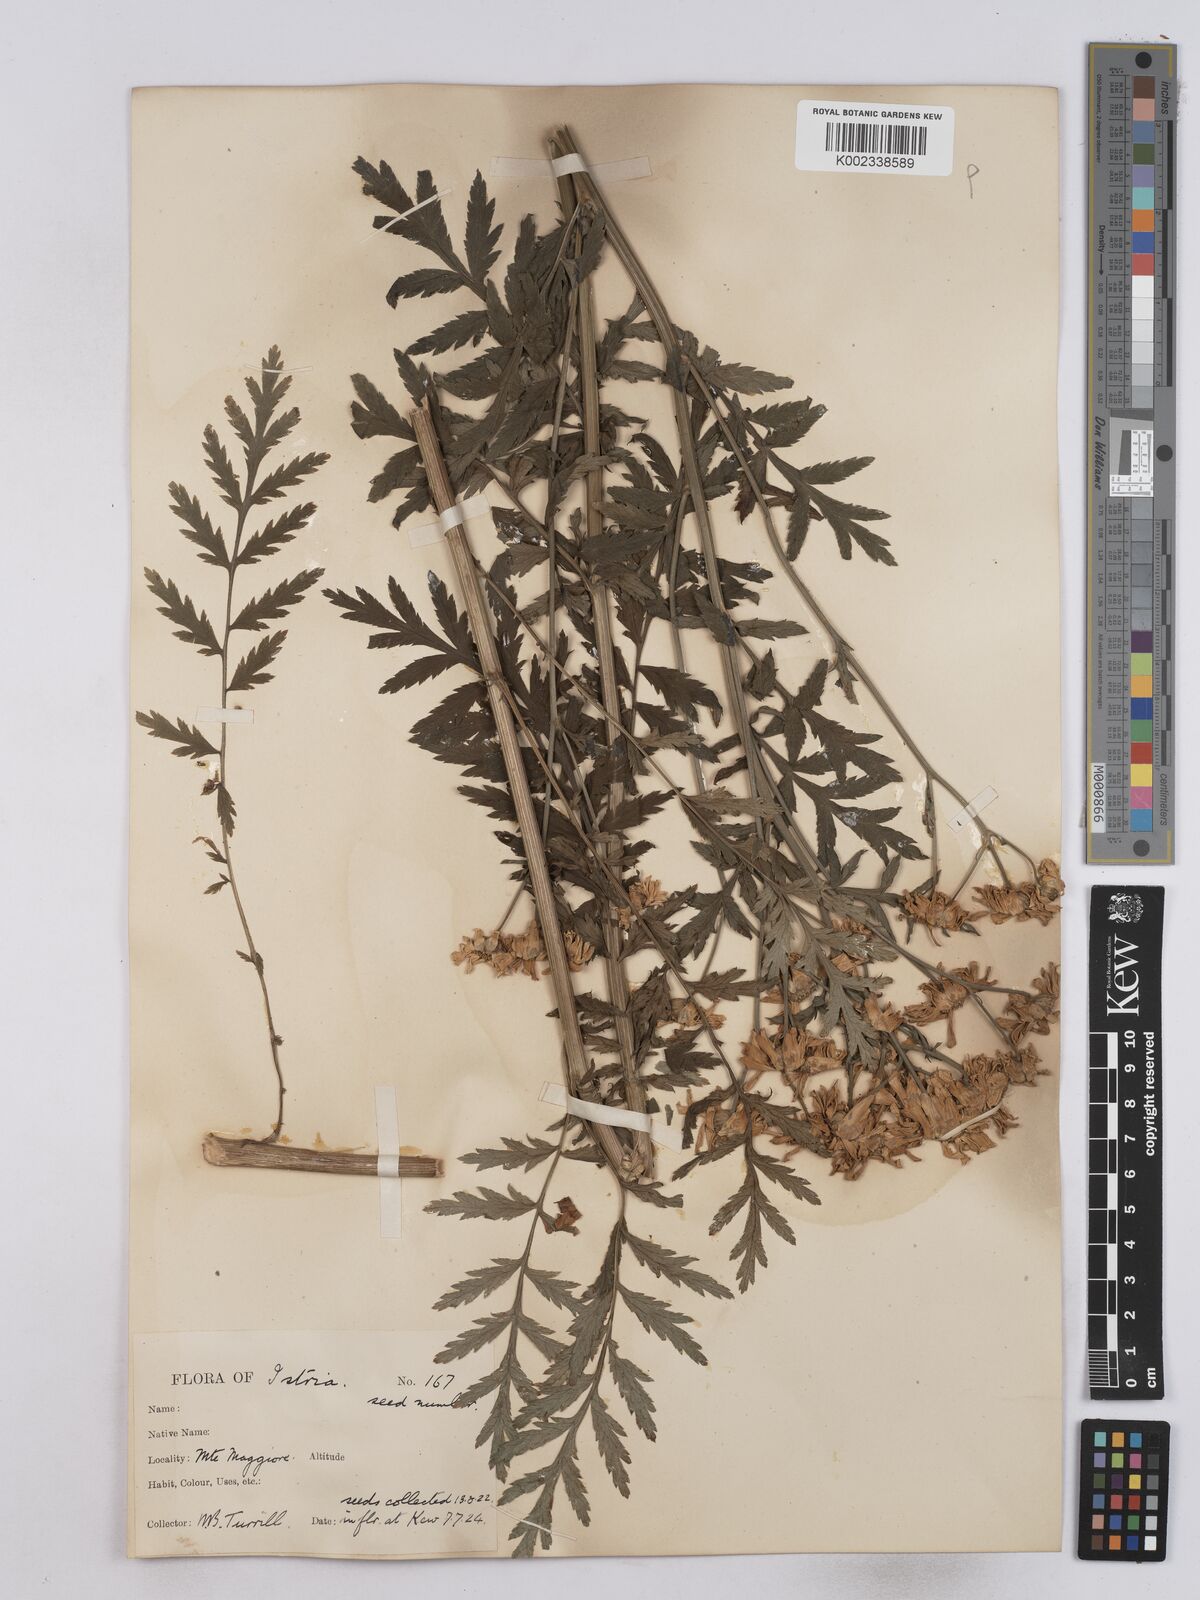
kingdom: Plantae
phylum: Tracheophyta
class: Magnoliopsida
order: Asterales
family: Asteraceae
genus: Tanacetum
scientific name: Tanacetum corymbosum
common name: Scentless feverfew
